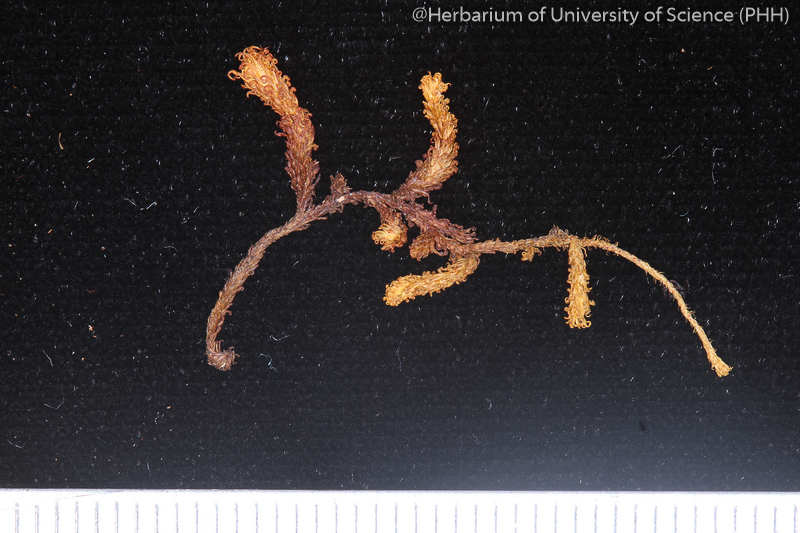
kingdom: Plantae
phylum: Bryophyta
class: Bryopsida
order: Orthotrichales
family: Orthotrichaceae
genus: Macromitrium
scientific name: Macromitrium fuscescens
